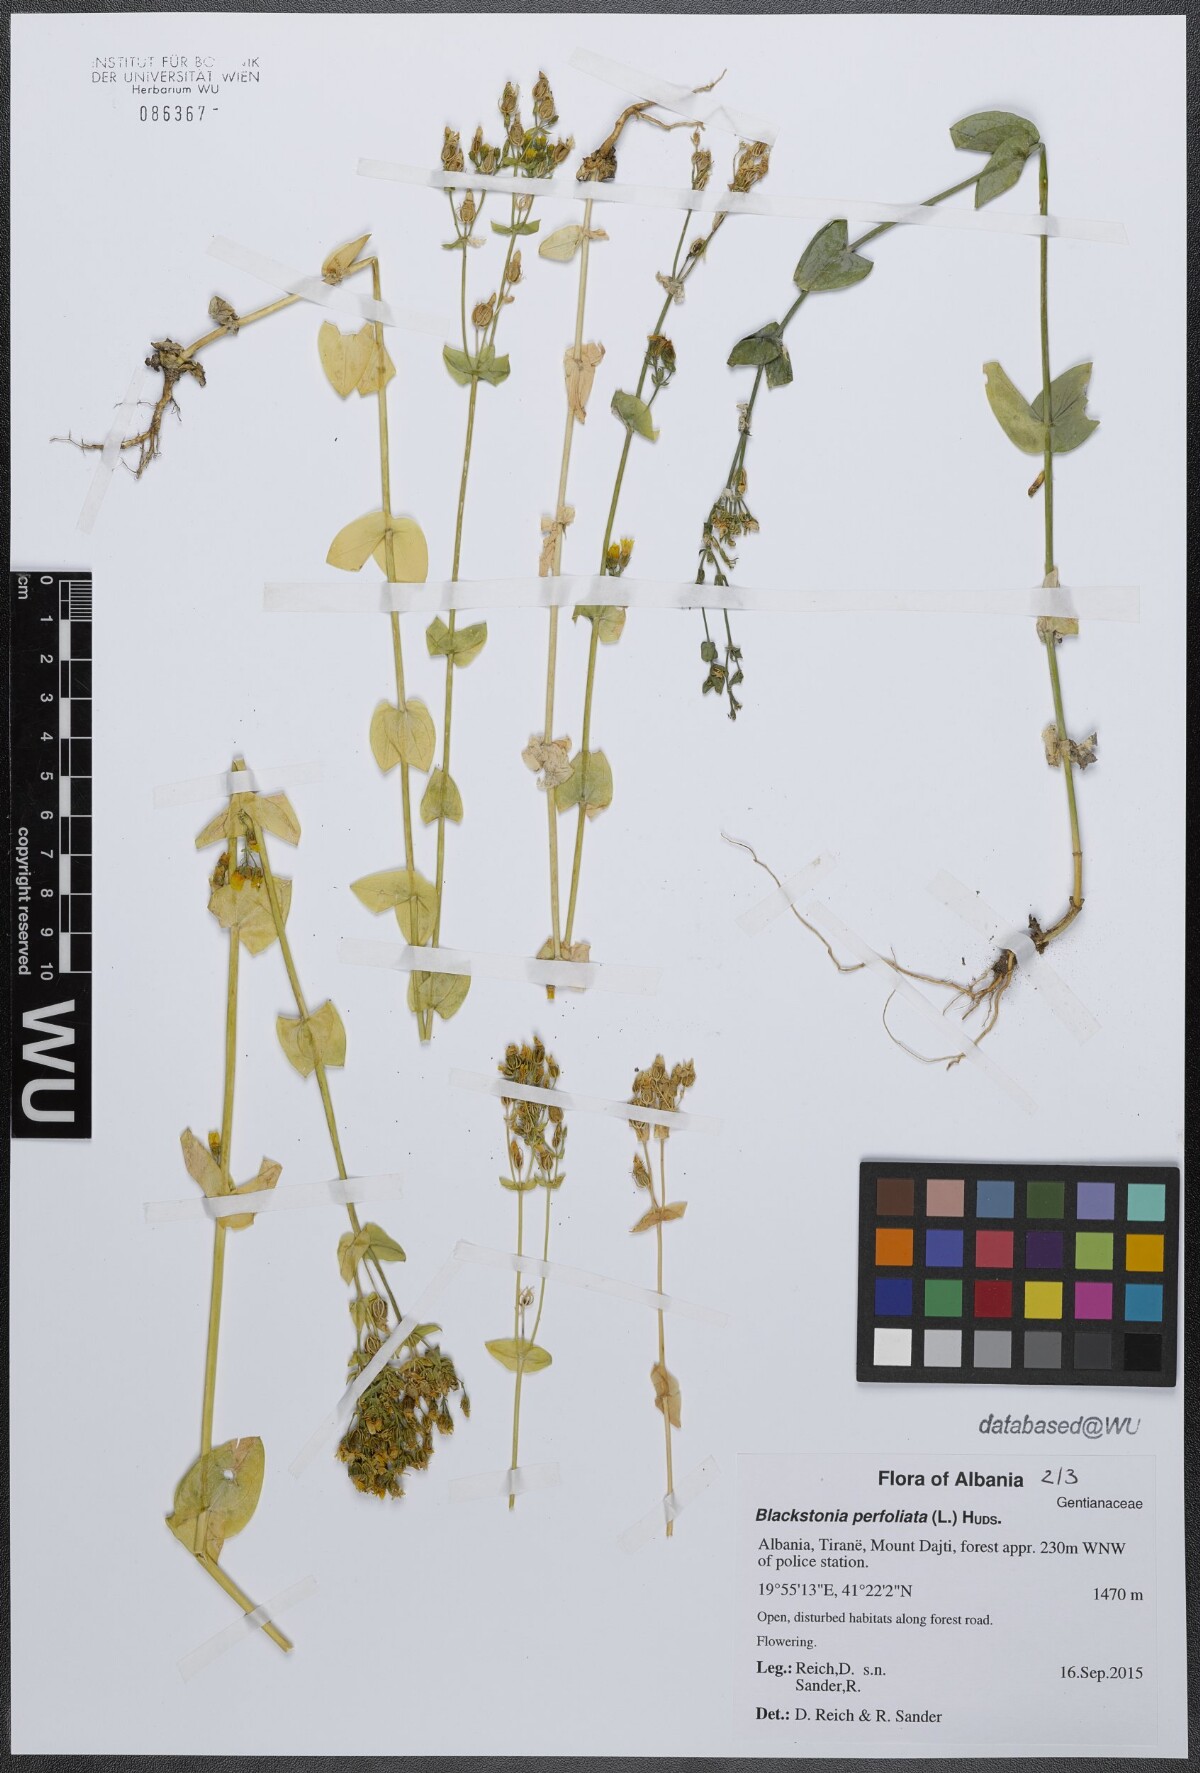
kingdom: Plantae
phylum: Tracheophyta
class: Magnoliopsida
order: Gentianales
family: Gentianaceae
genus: Blackstonia
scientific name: Blackstonia perfoliata
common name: Yellow-wort
